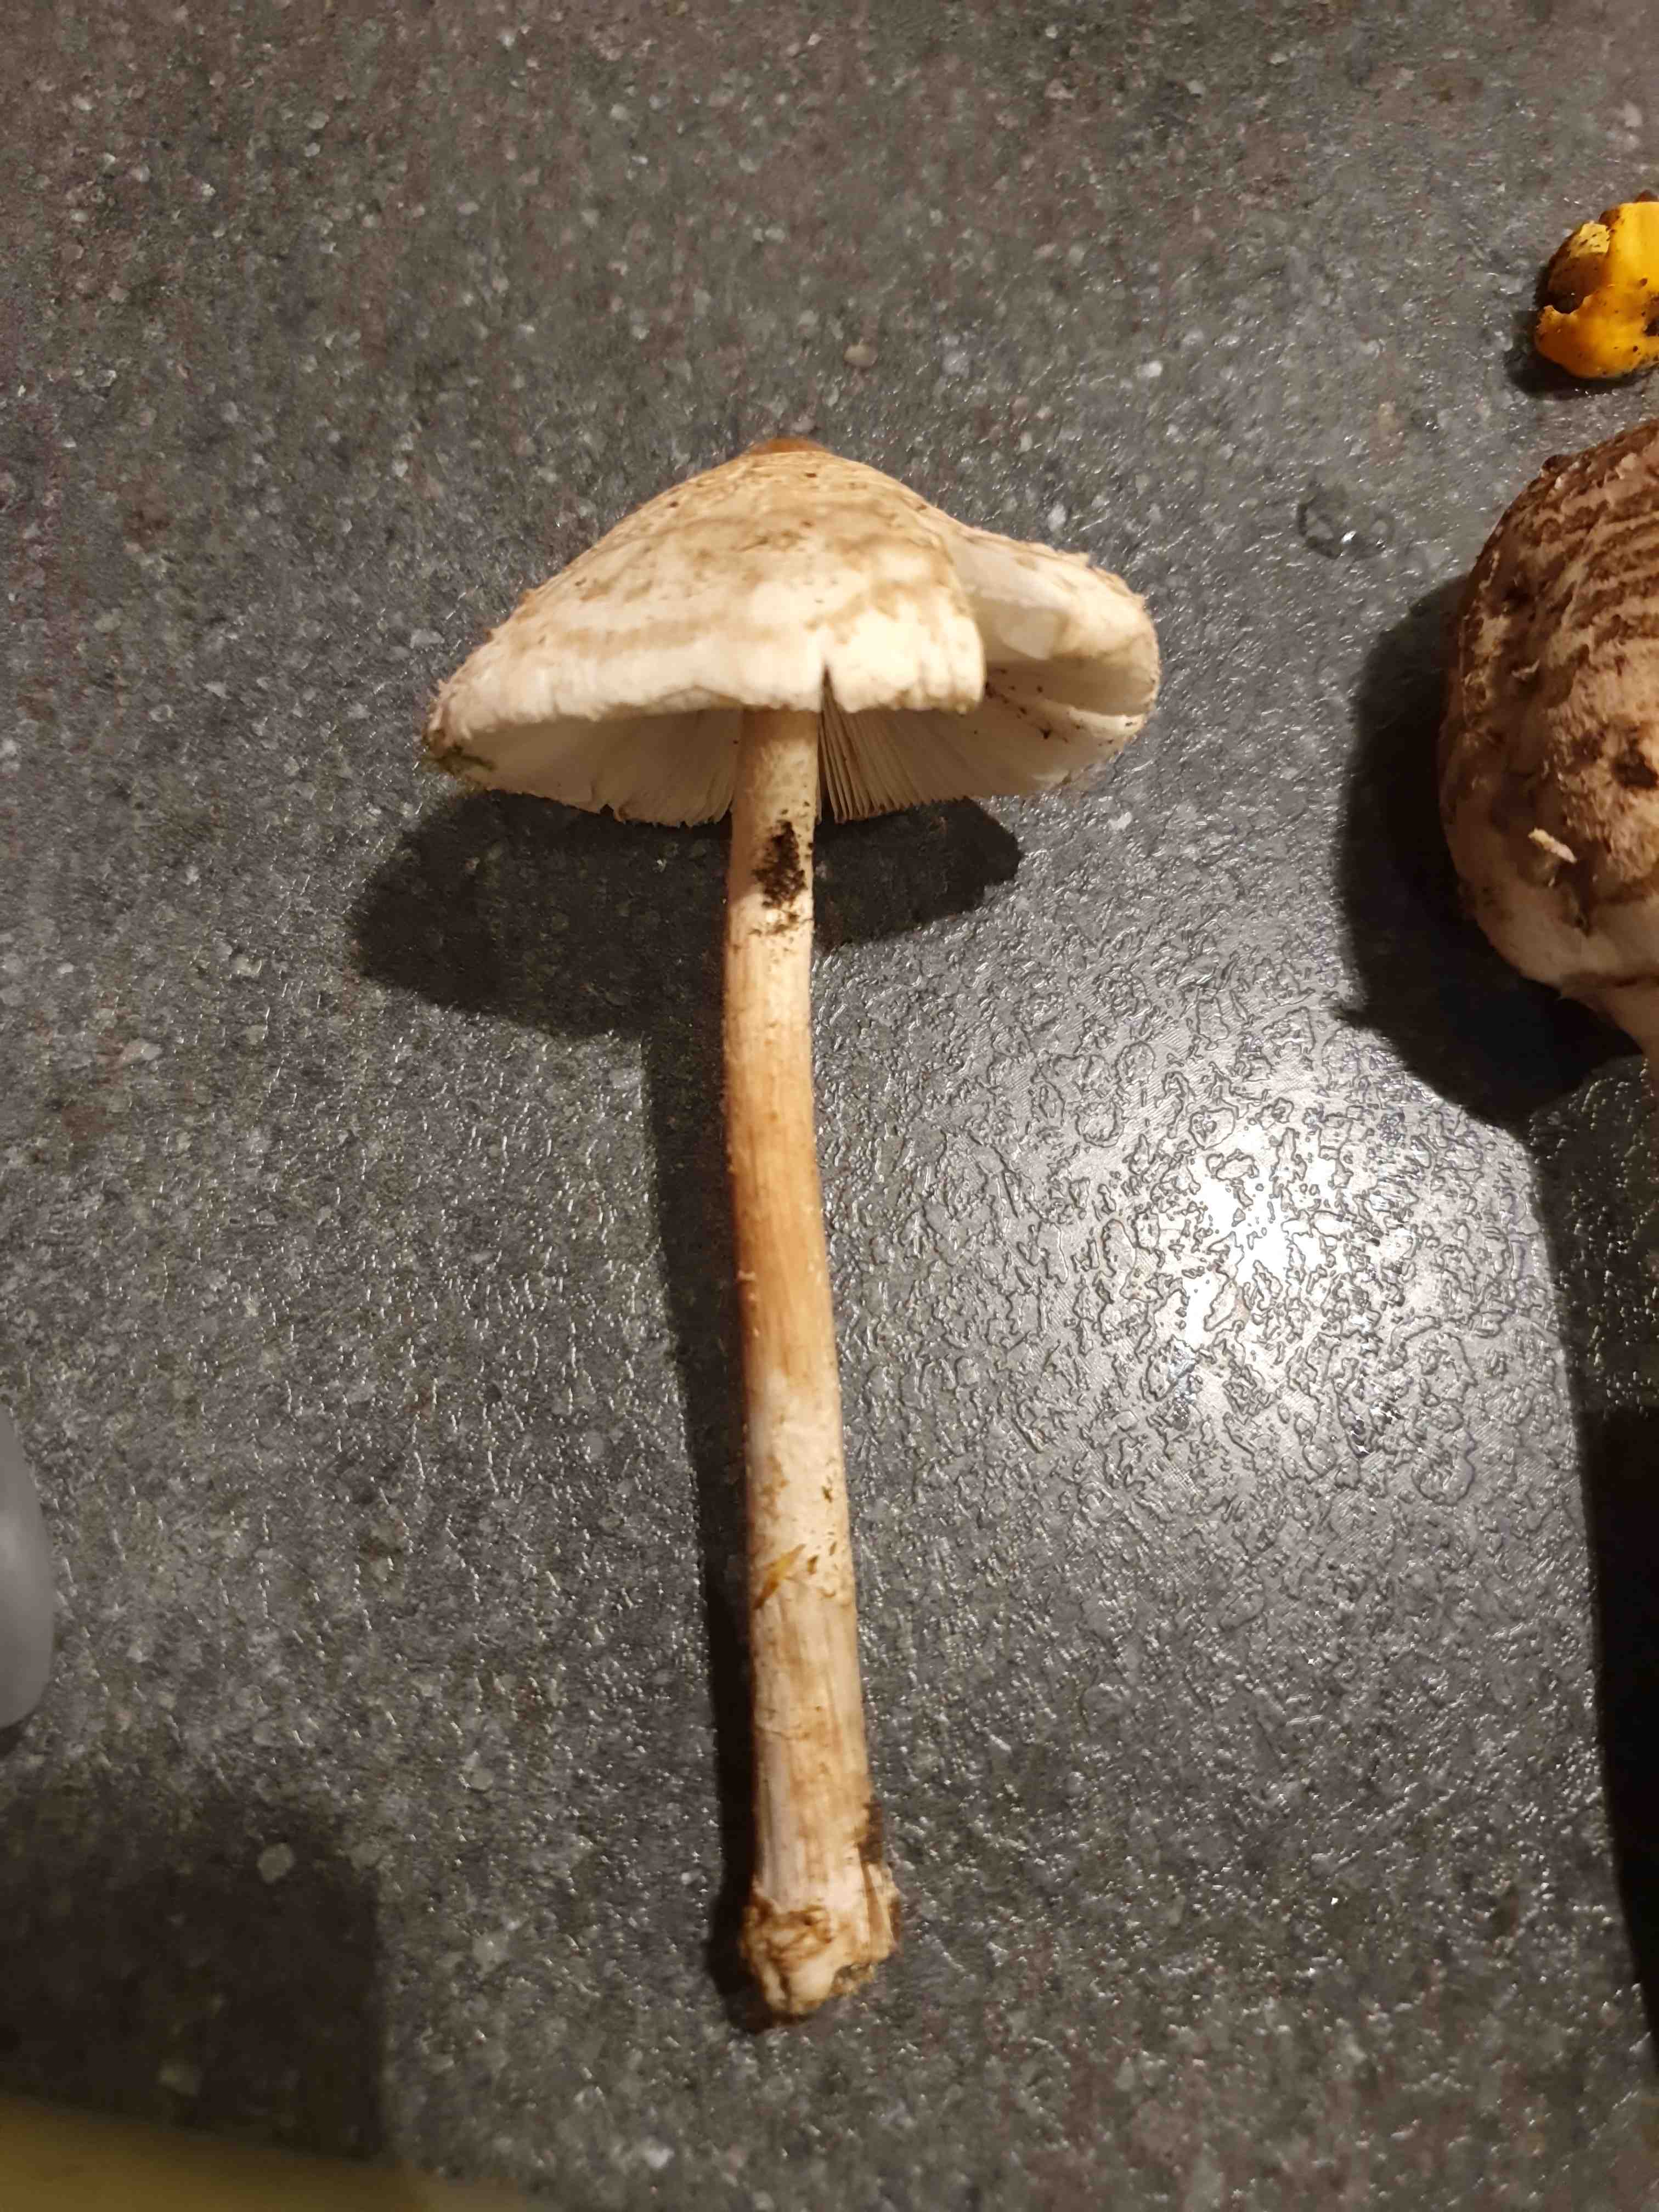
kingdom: Fungi
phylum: Basidiomycota
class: Agaricomycetes
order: Agaricales
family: Agaricaceae
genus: Macrolepiota
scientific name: Macrolepiota
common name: kæmpeparasolhat
